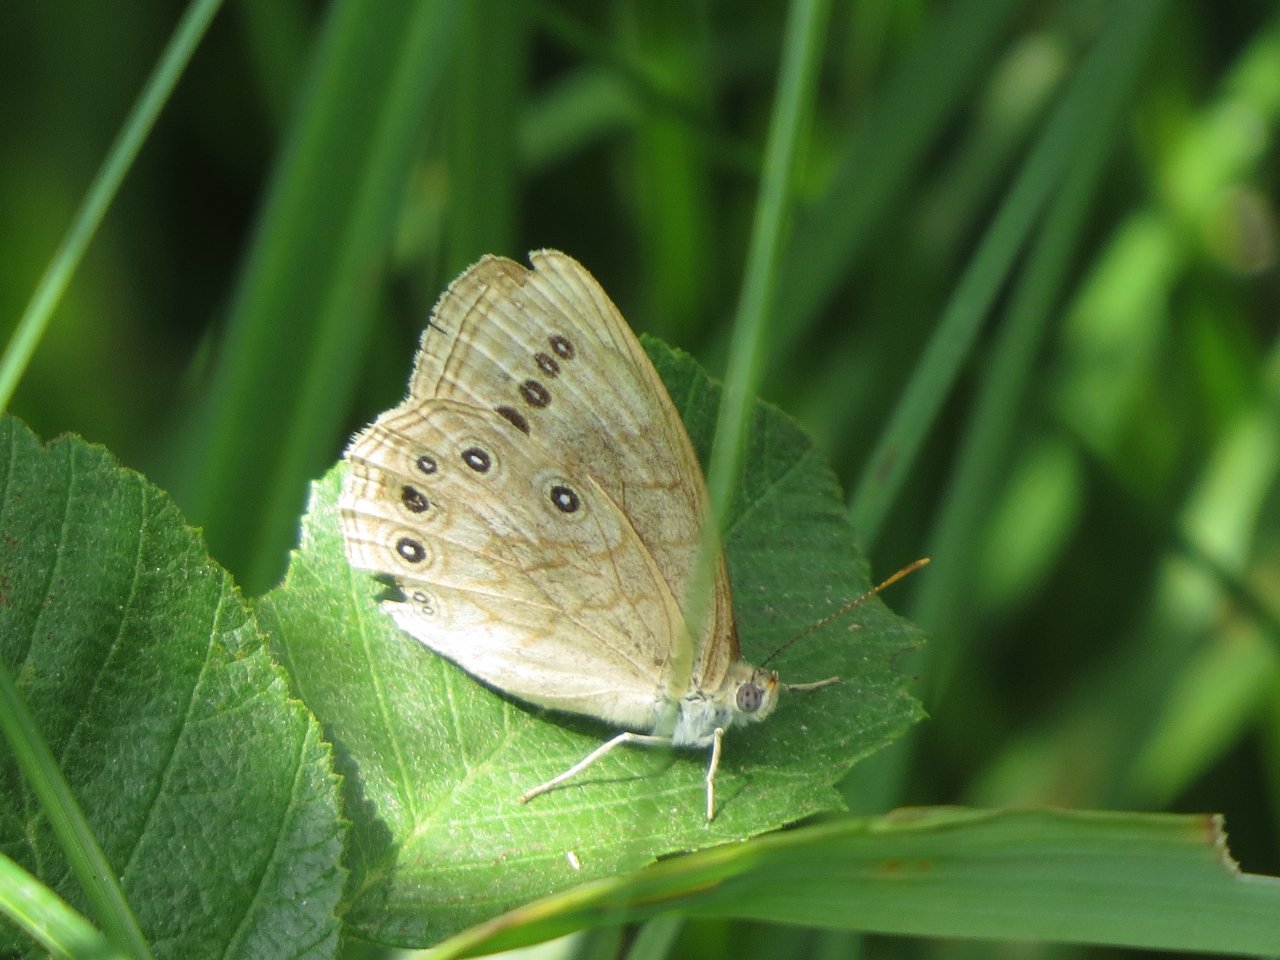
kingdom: Animalia
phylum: Arthropoda
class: Insecta
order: Lepidoptera
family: Nymphalidae
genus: Lethe
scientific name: Lethe eurydice
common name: Eyed Brown
